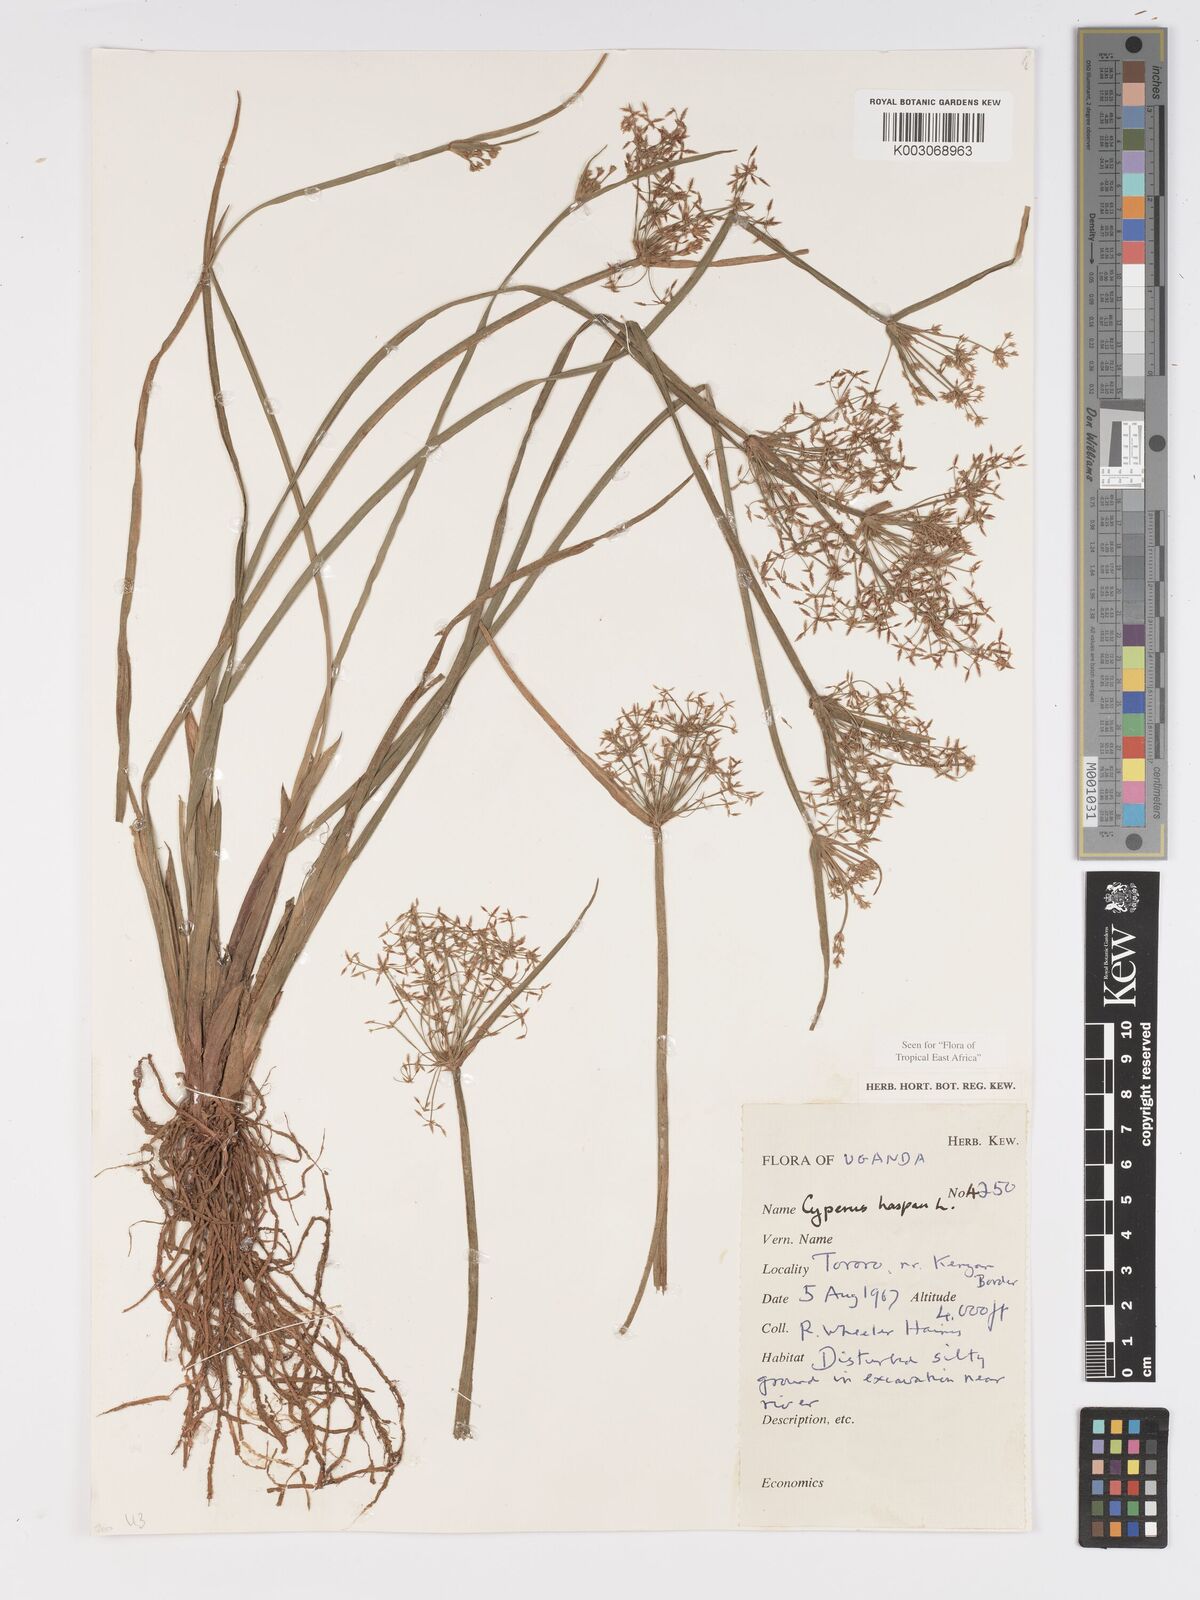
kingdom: Plantae
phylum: Tracheophyta
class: Liliopsida
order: Poales
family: Cyperaceae
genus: Cyperus
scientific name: Cyperus haspan
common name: Haspan flatsedge
